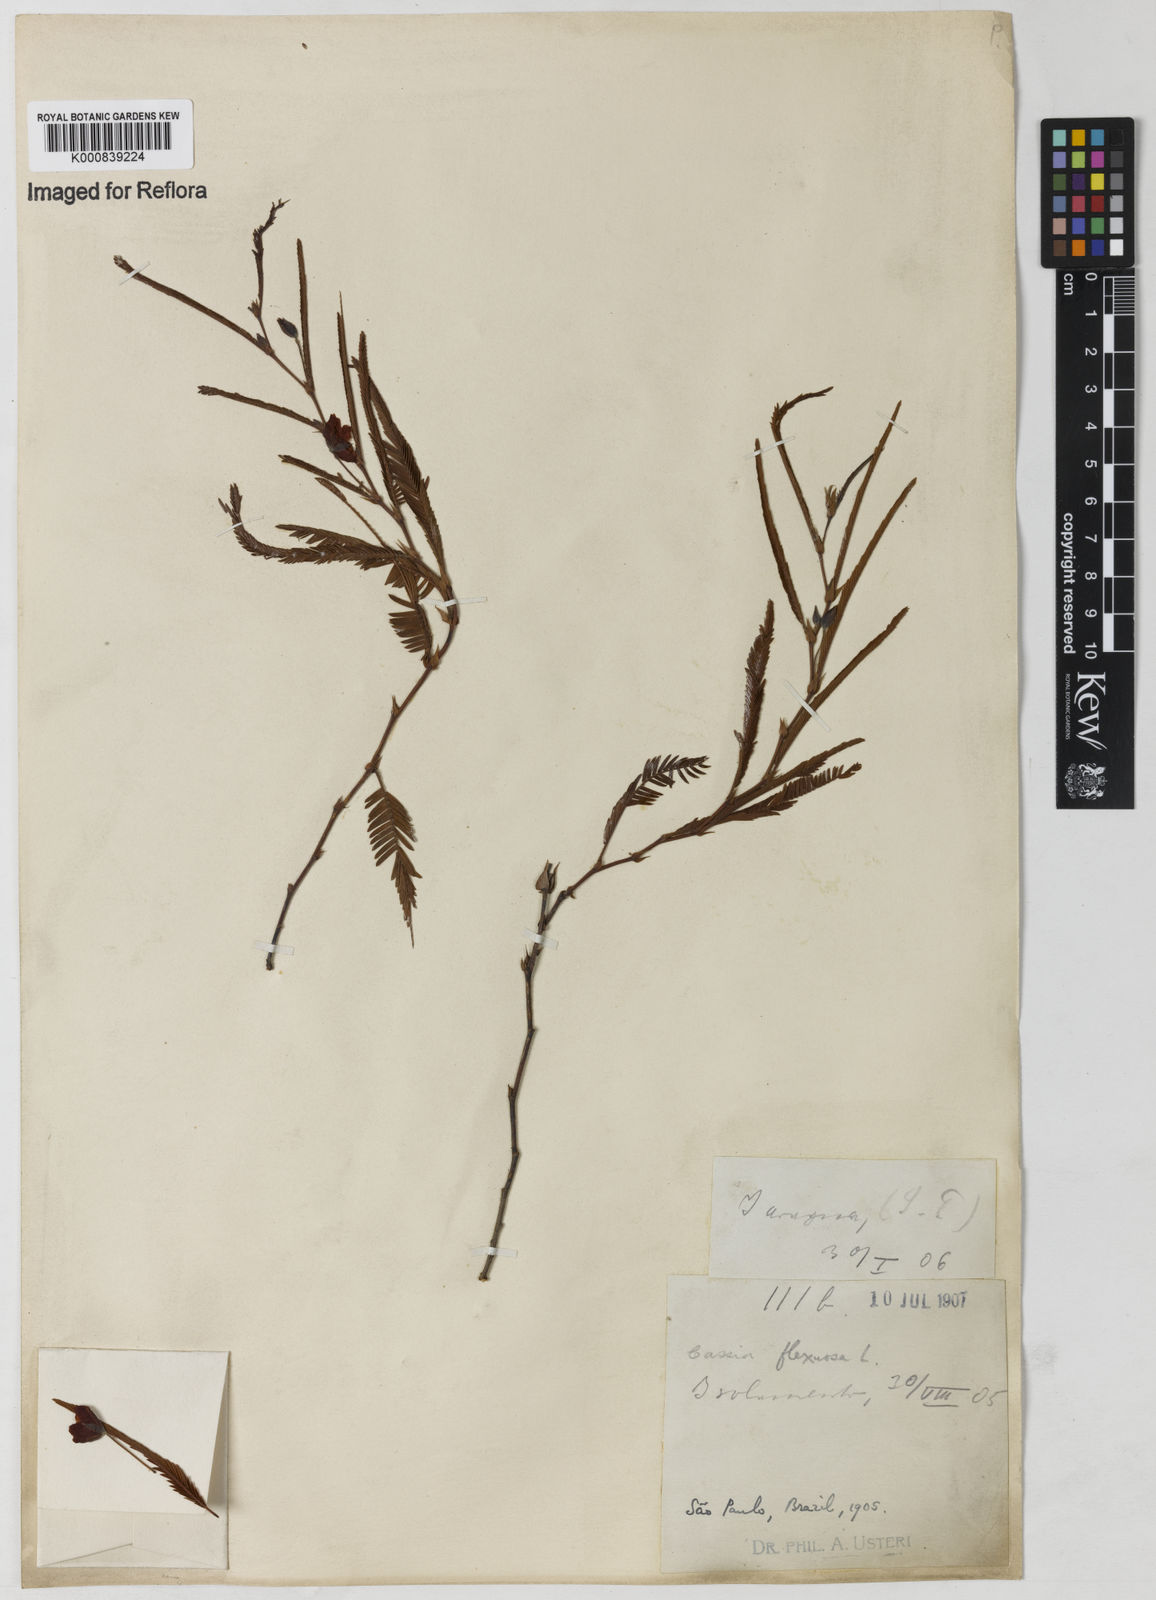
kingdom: Plantae
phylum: Tracheophyta
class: Magnoliopsida
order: Fabales
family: Fabaceae
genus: Chamaecrista
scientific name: Chamaecrista flexuosa
